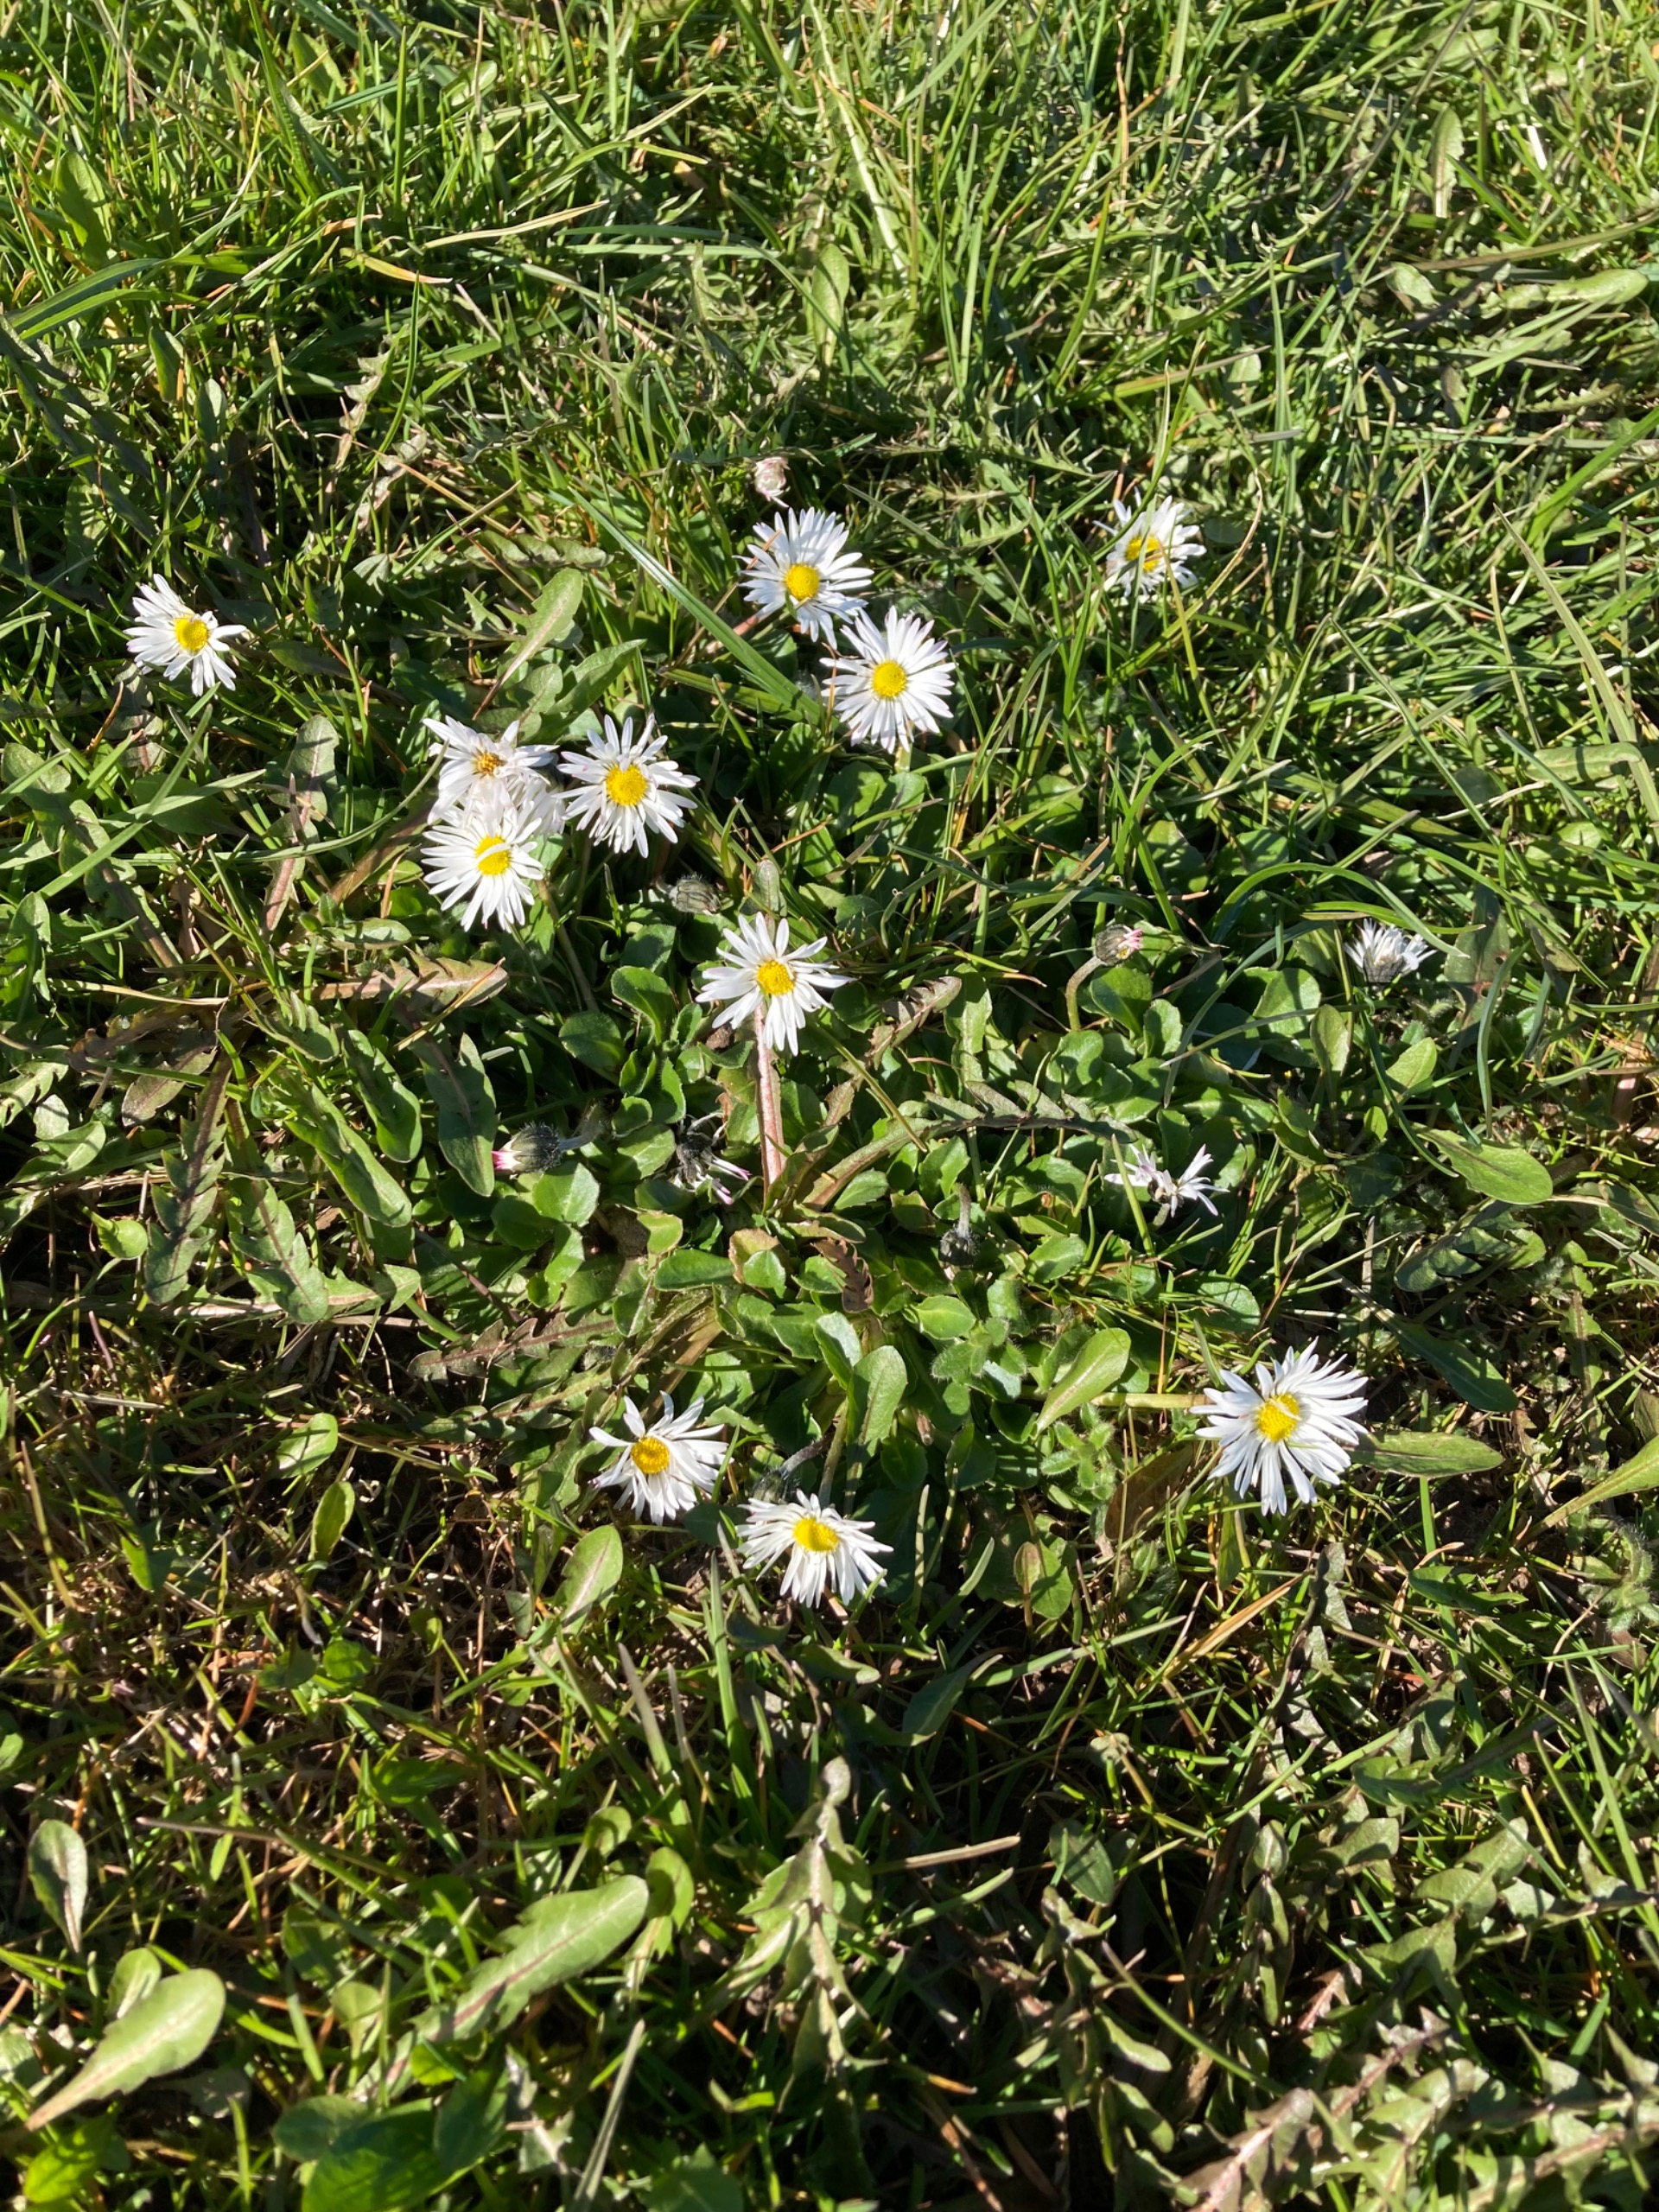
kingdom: Plantae
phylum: Tracheophyta
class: Magnoliopsida
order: Asterales
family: Asteraceae
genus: Bellis
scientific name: Bellis perennis
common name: Tusindfryd
